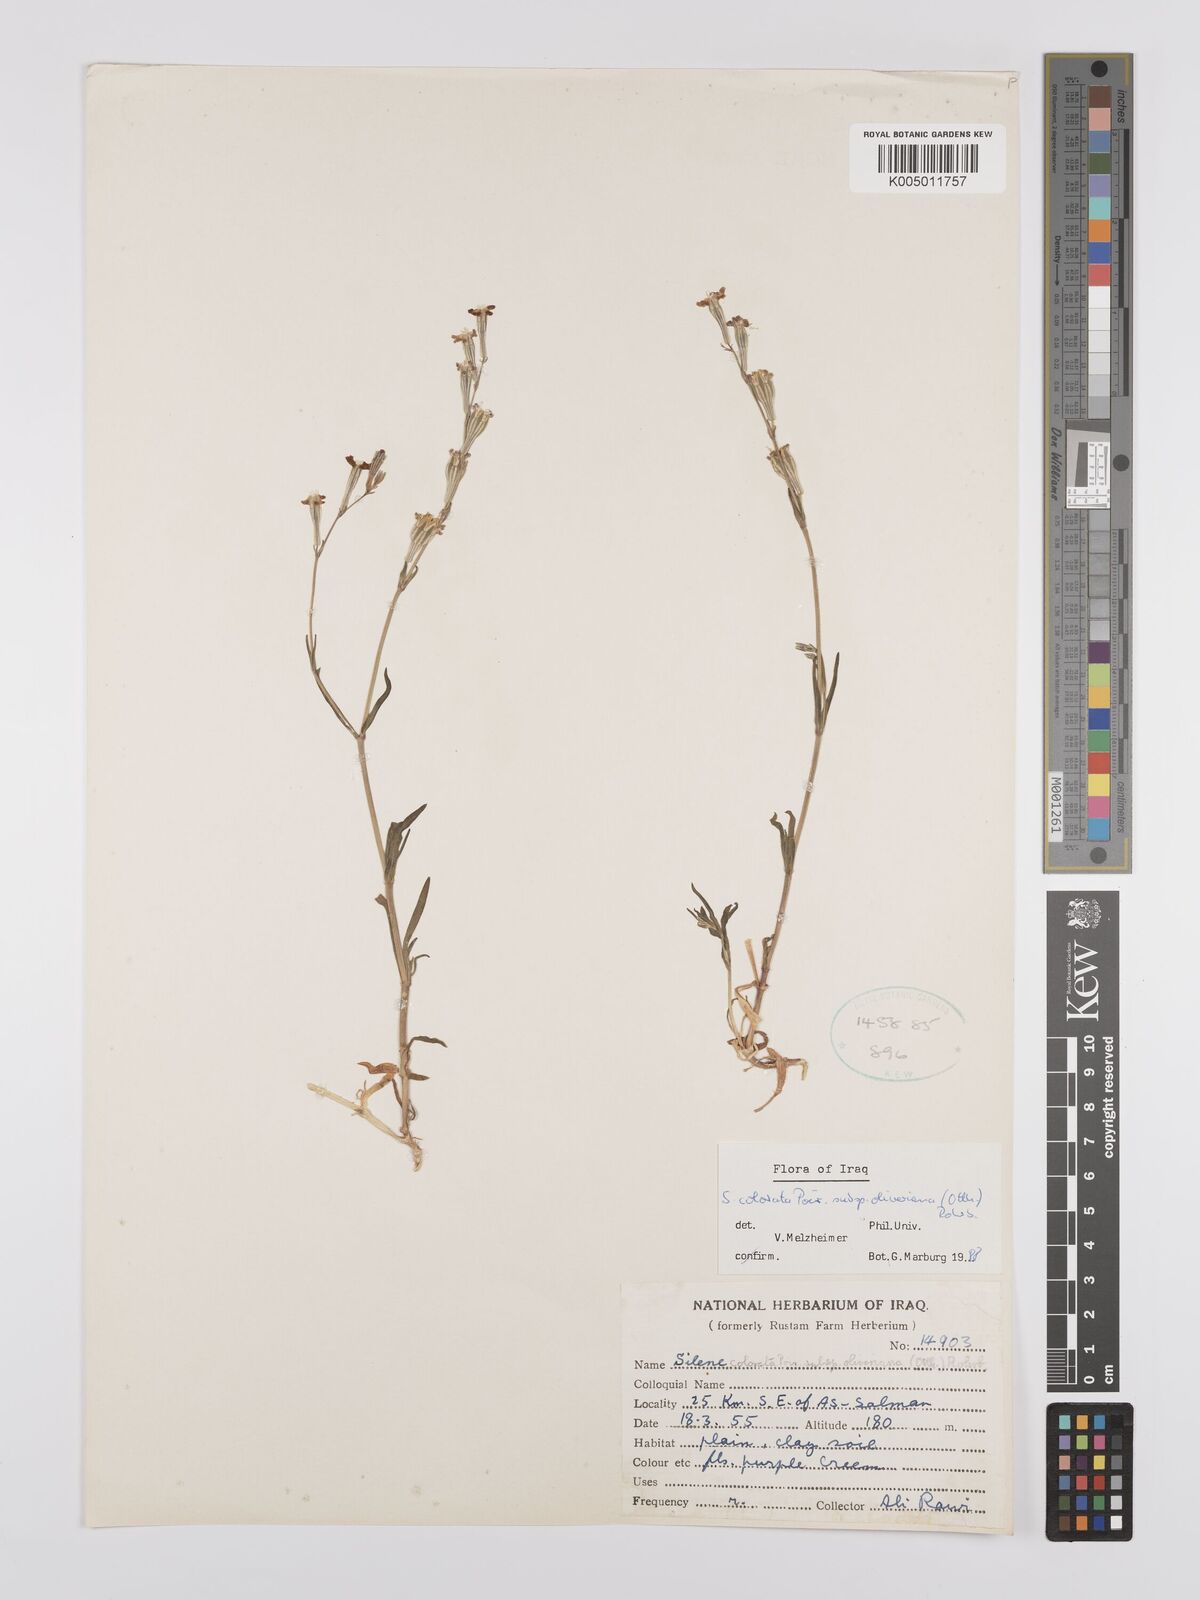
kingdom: Plantae
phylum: Tracheophyta
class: Magnoliopsida
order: Caryophyllales
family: Caryophyllaceae
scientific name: Caryophyllaceae
